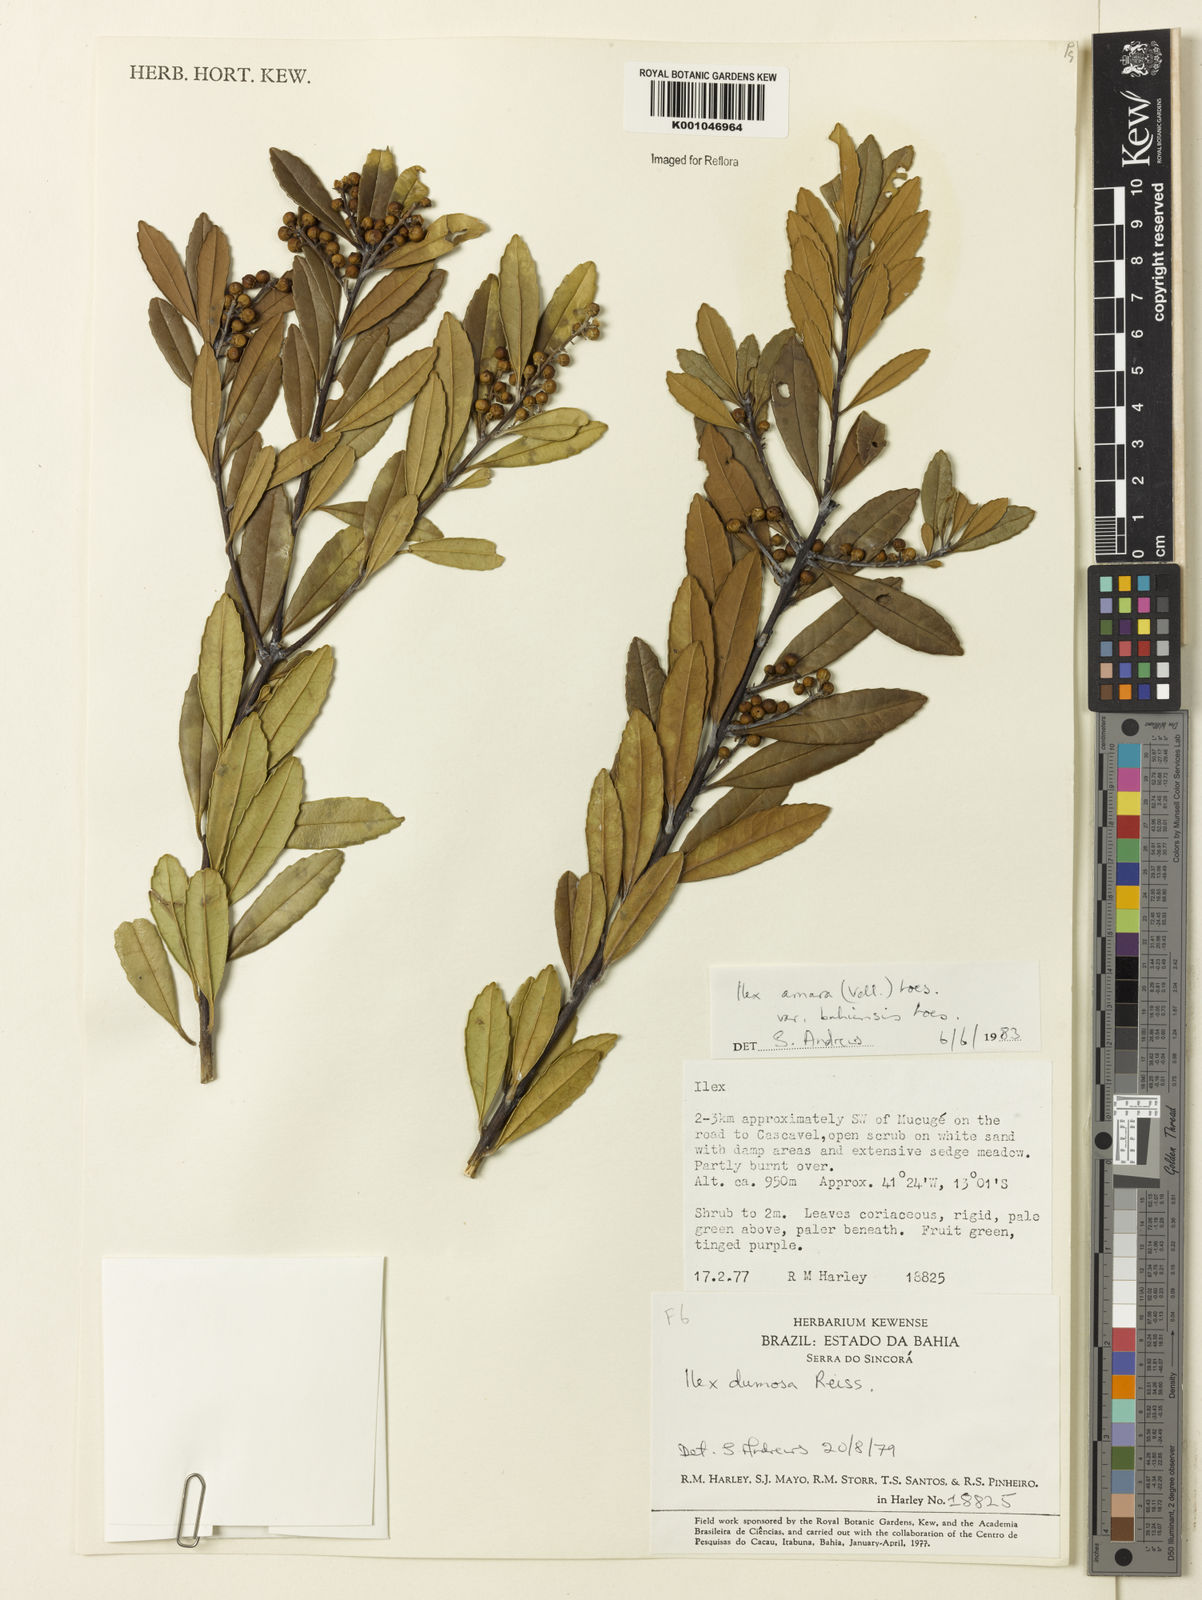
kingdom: Plantae
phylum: Tracheophyta
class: Magnoliopsida
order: Aquifoliales
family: Aquifoliaceae
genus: Ilex
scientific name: Ilex dumosa
